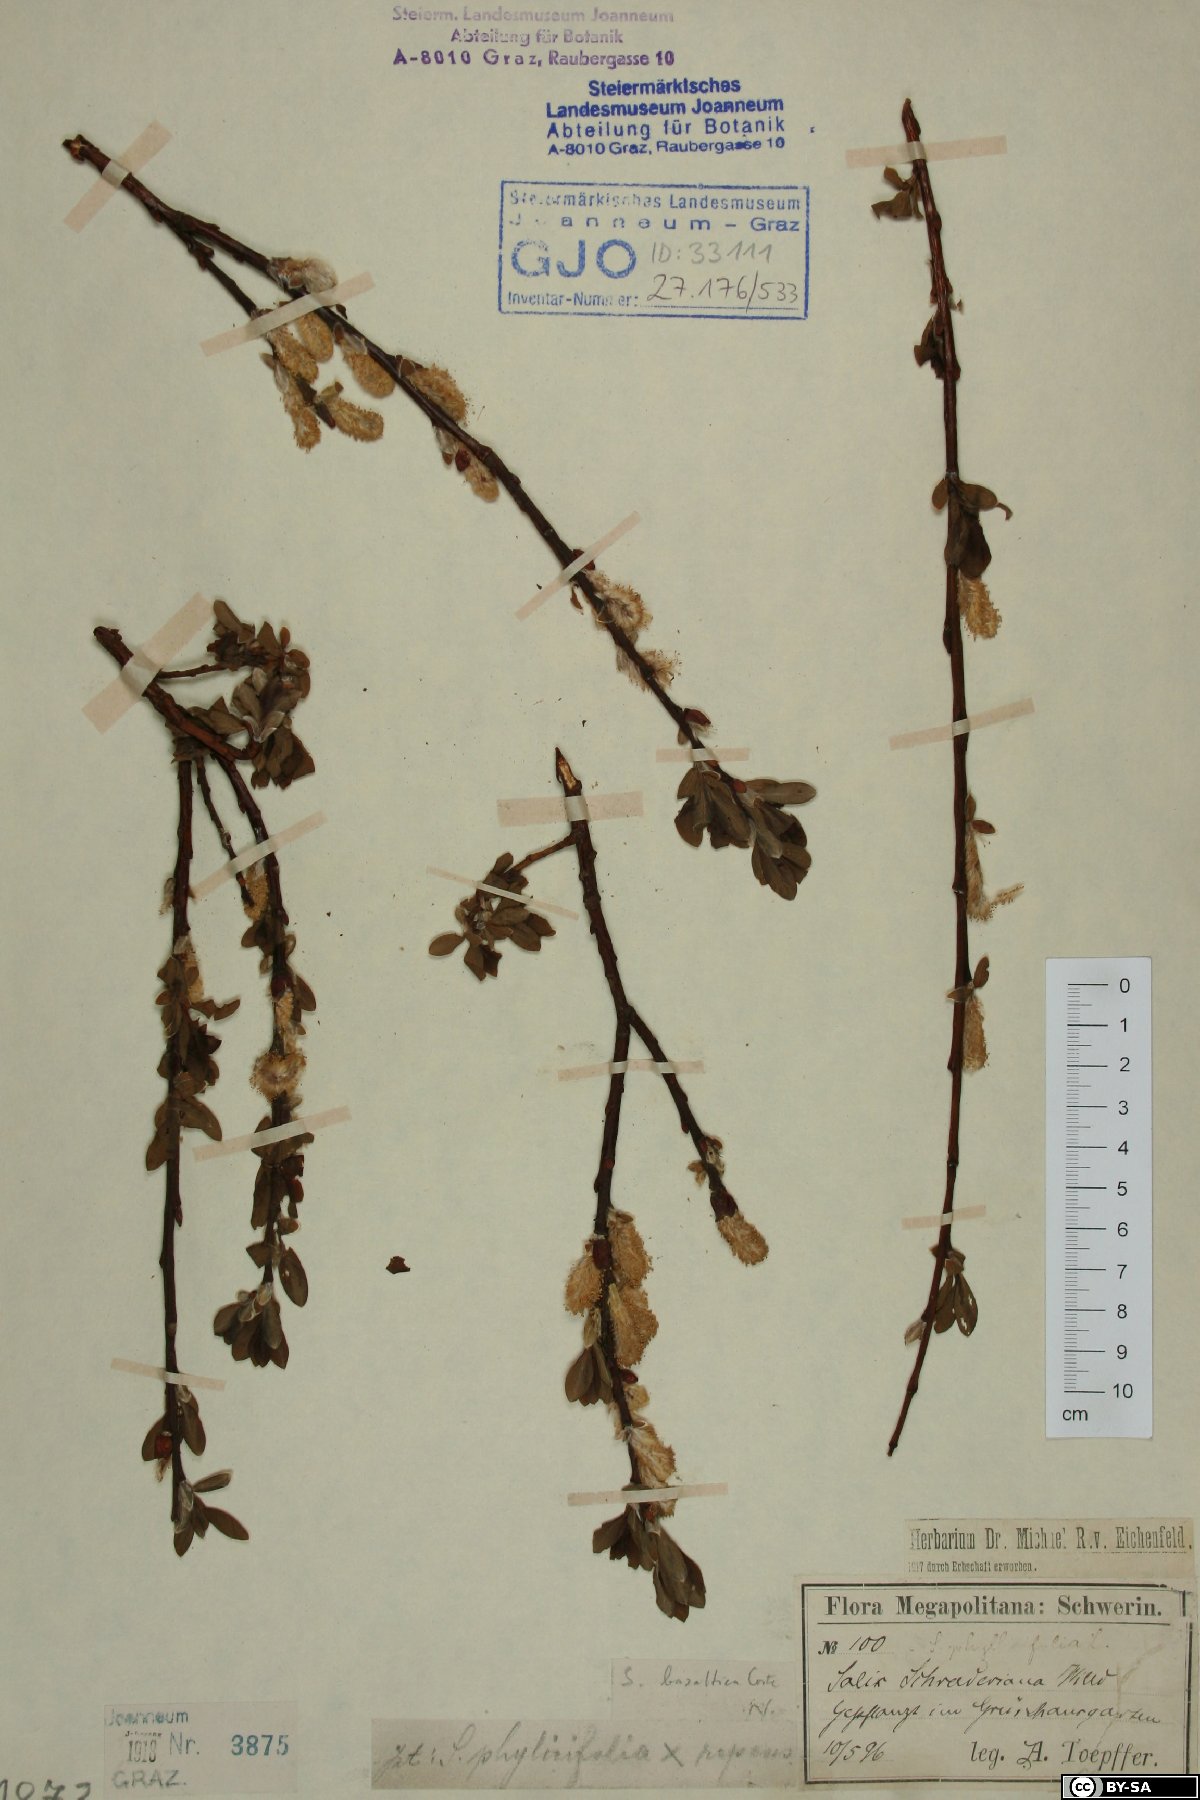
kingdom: Plantae
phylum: Tracheophyta
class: Magnoliopsida
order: Malpighiales
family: Salicaceae
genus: Salix
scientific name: Salix basaltica
